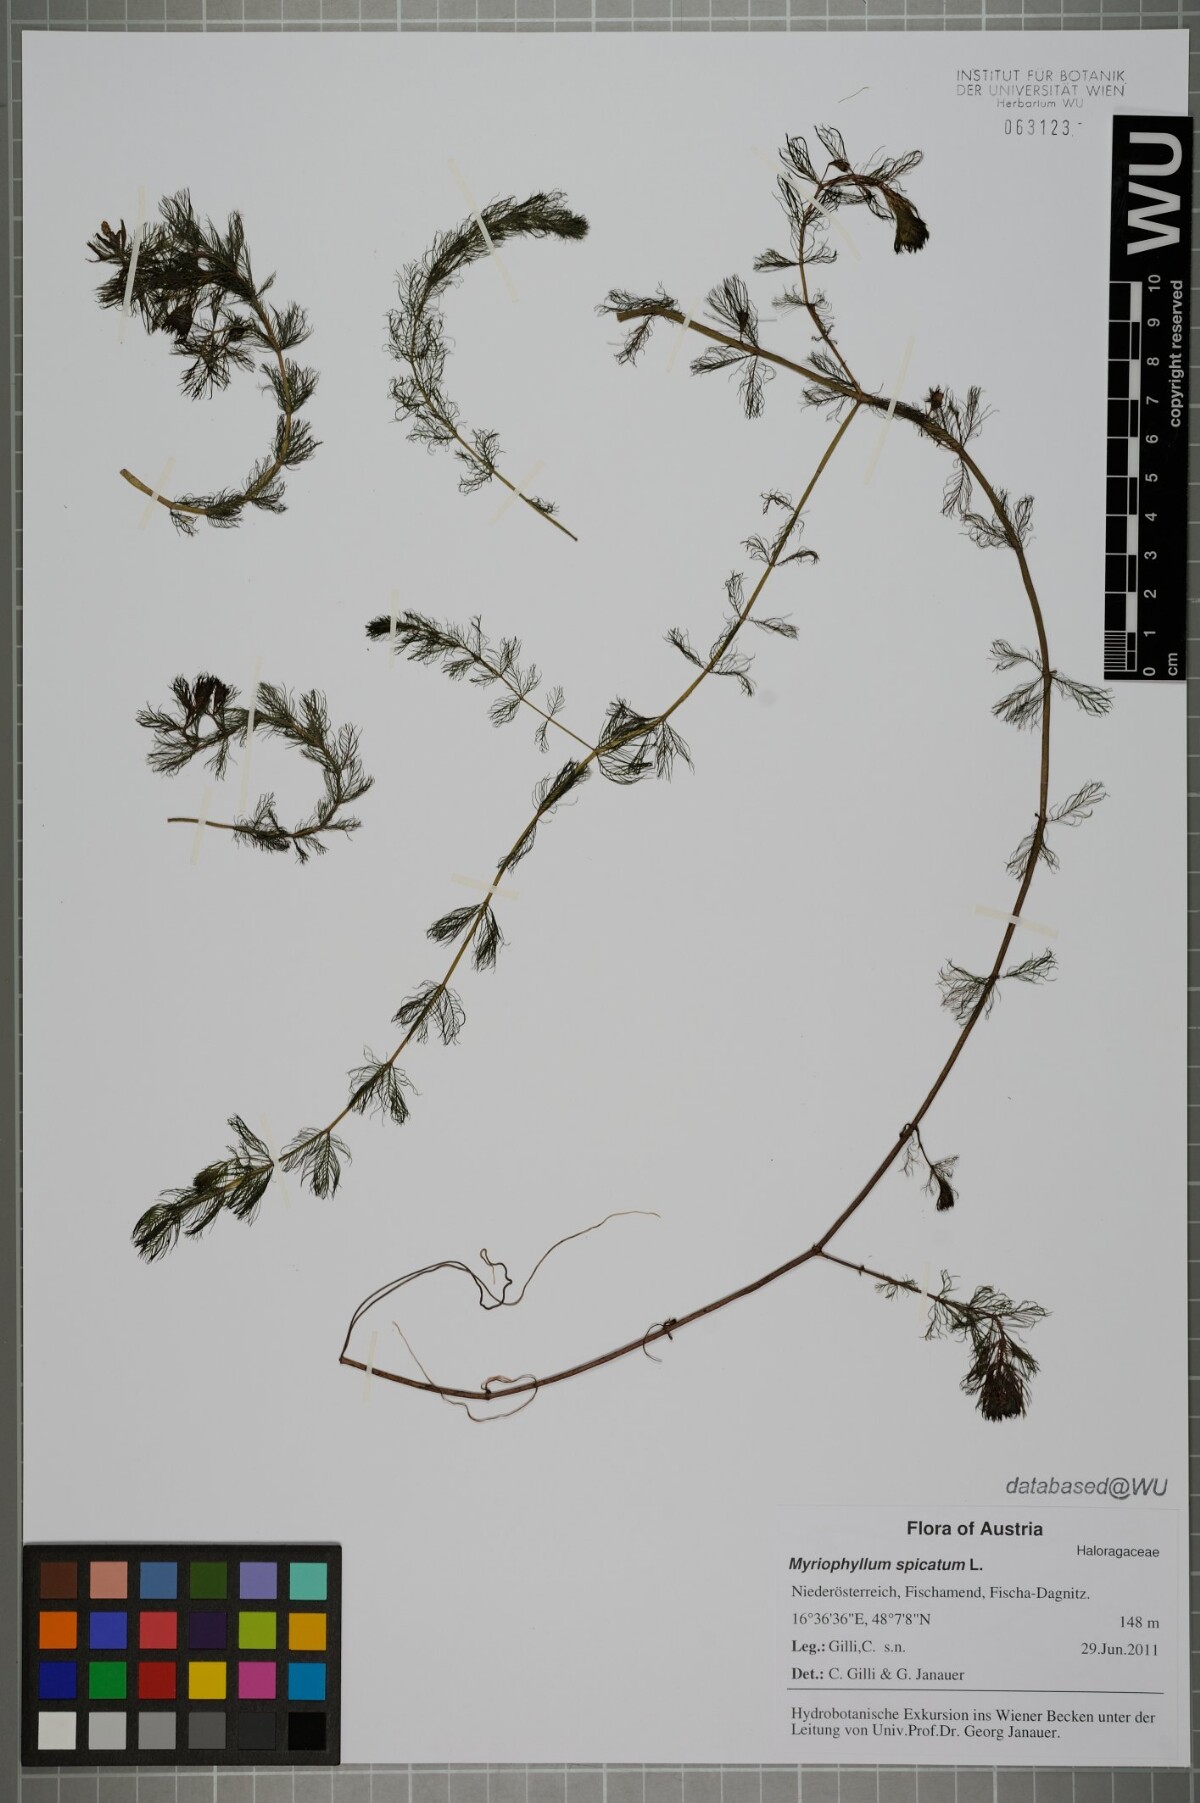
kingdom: Plantae
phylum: Tracheophyta
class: Magnoliopsida
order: Saxifragales
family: Haloragaceae
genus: Myriophyllum
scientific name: Myriophyllum spicatum
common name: Spiked water-milfoil
